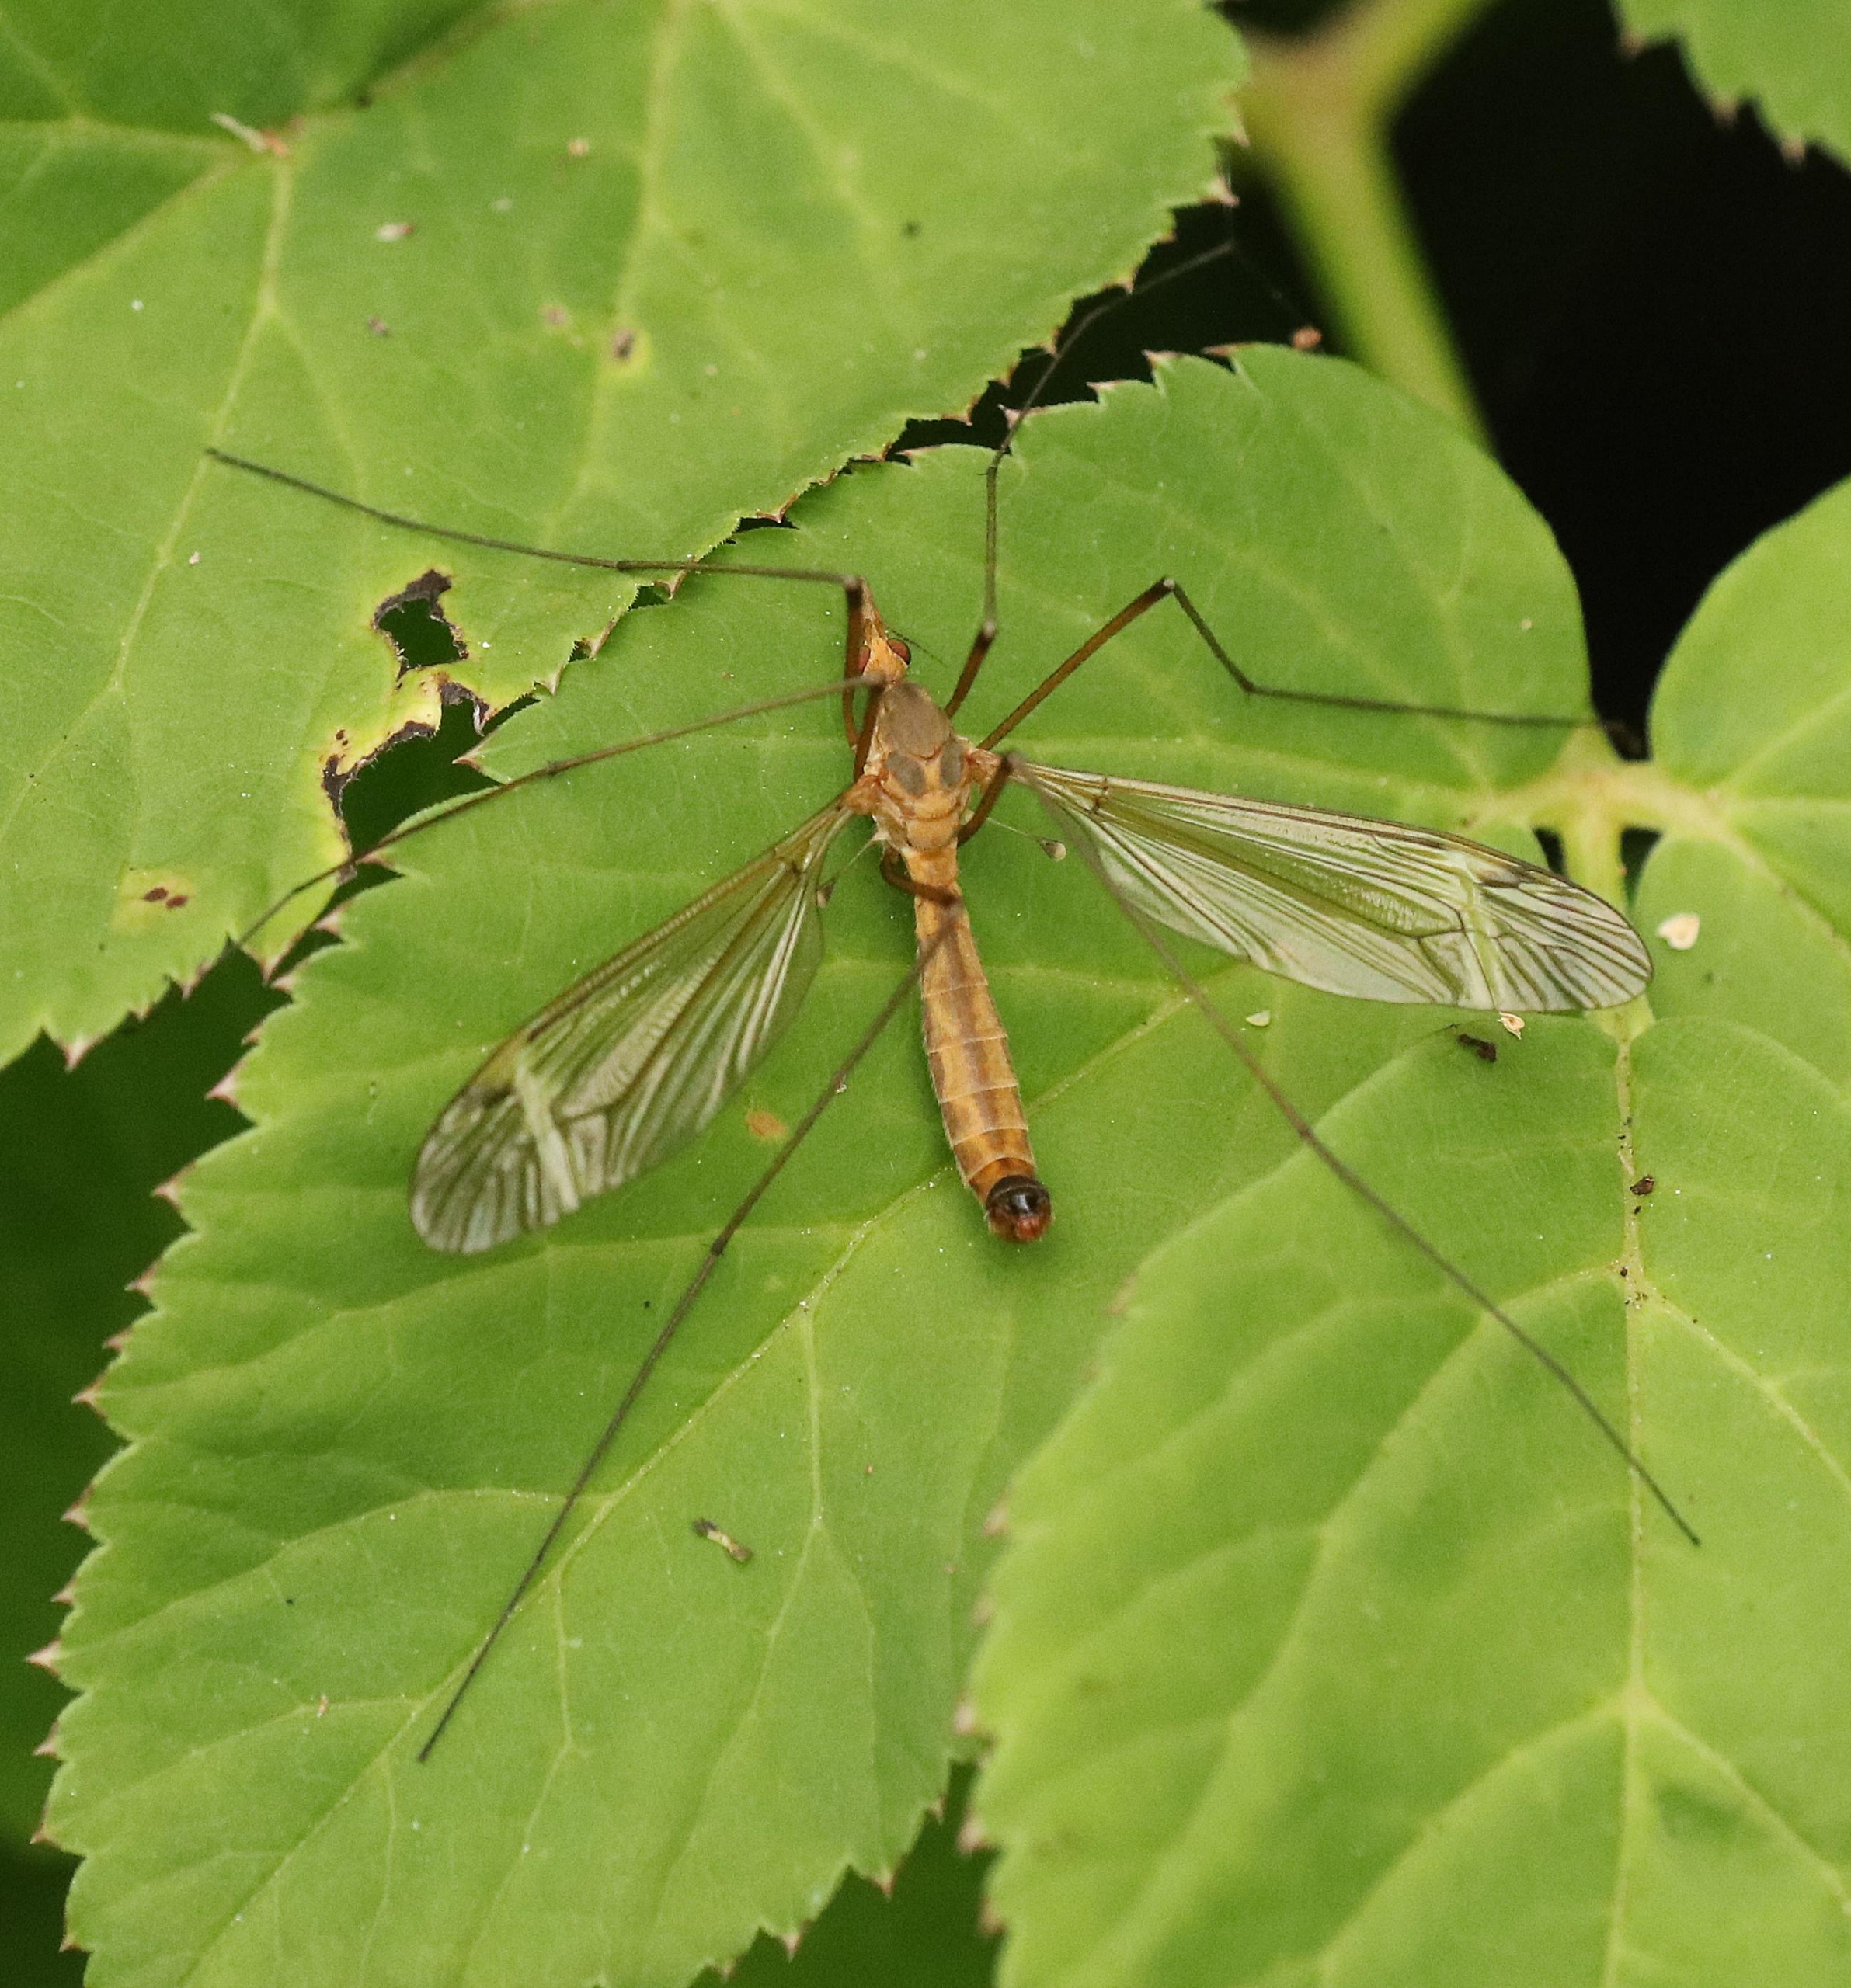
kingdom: Animalia
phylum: Arthropoda
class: Insecta
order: Diptera
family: Tipulidae
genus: Tipula
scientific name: Tipula fascipennis
